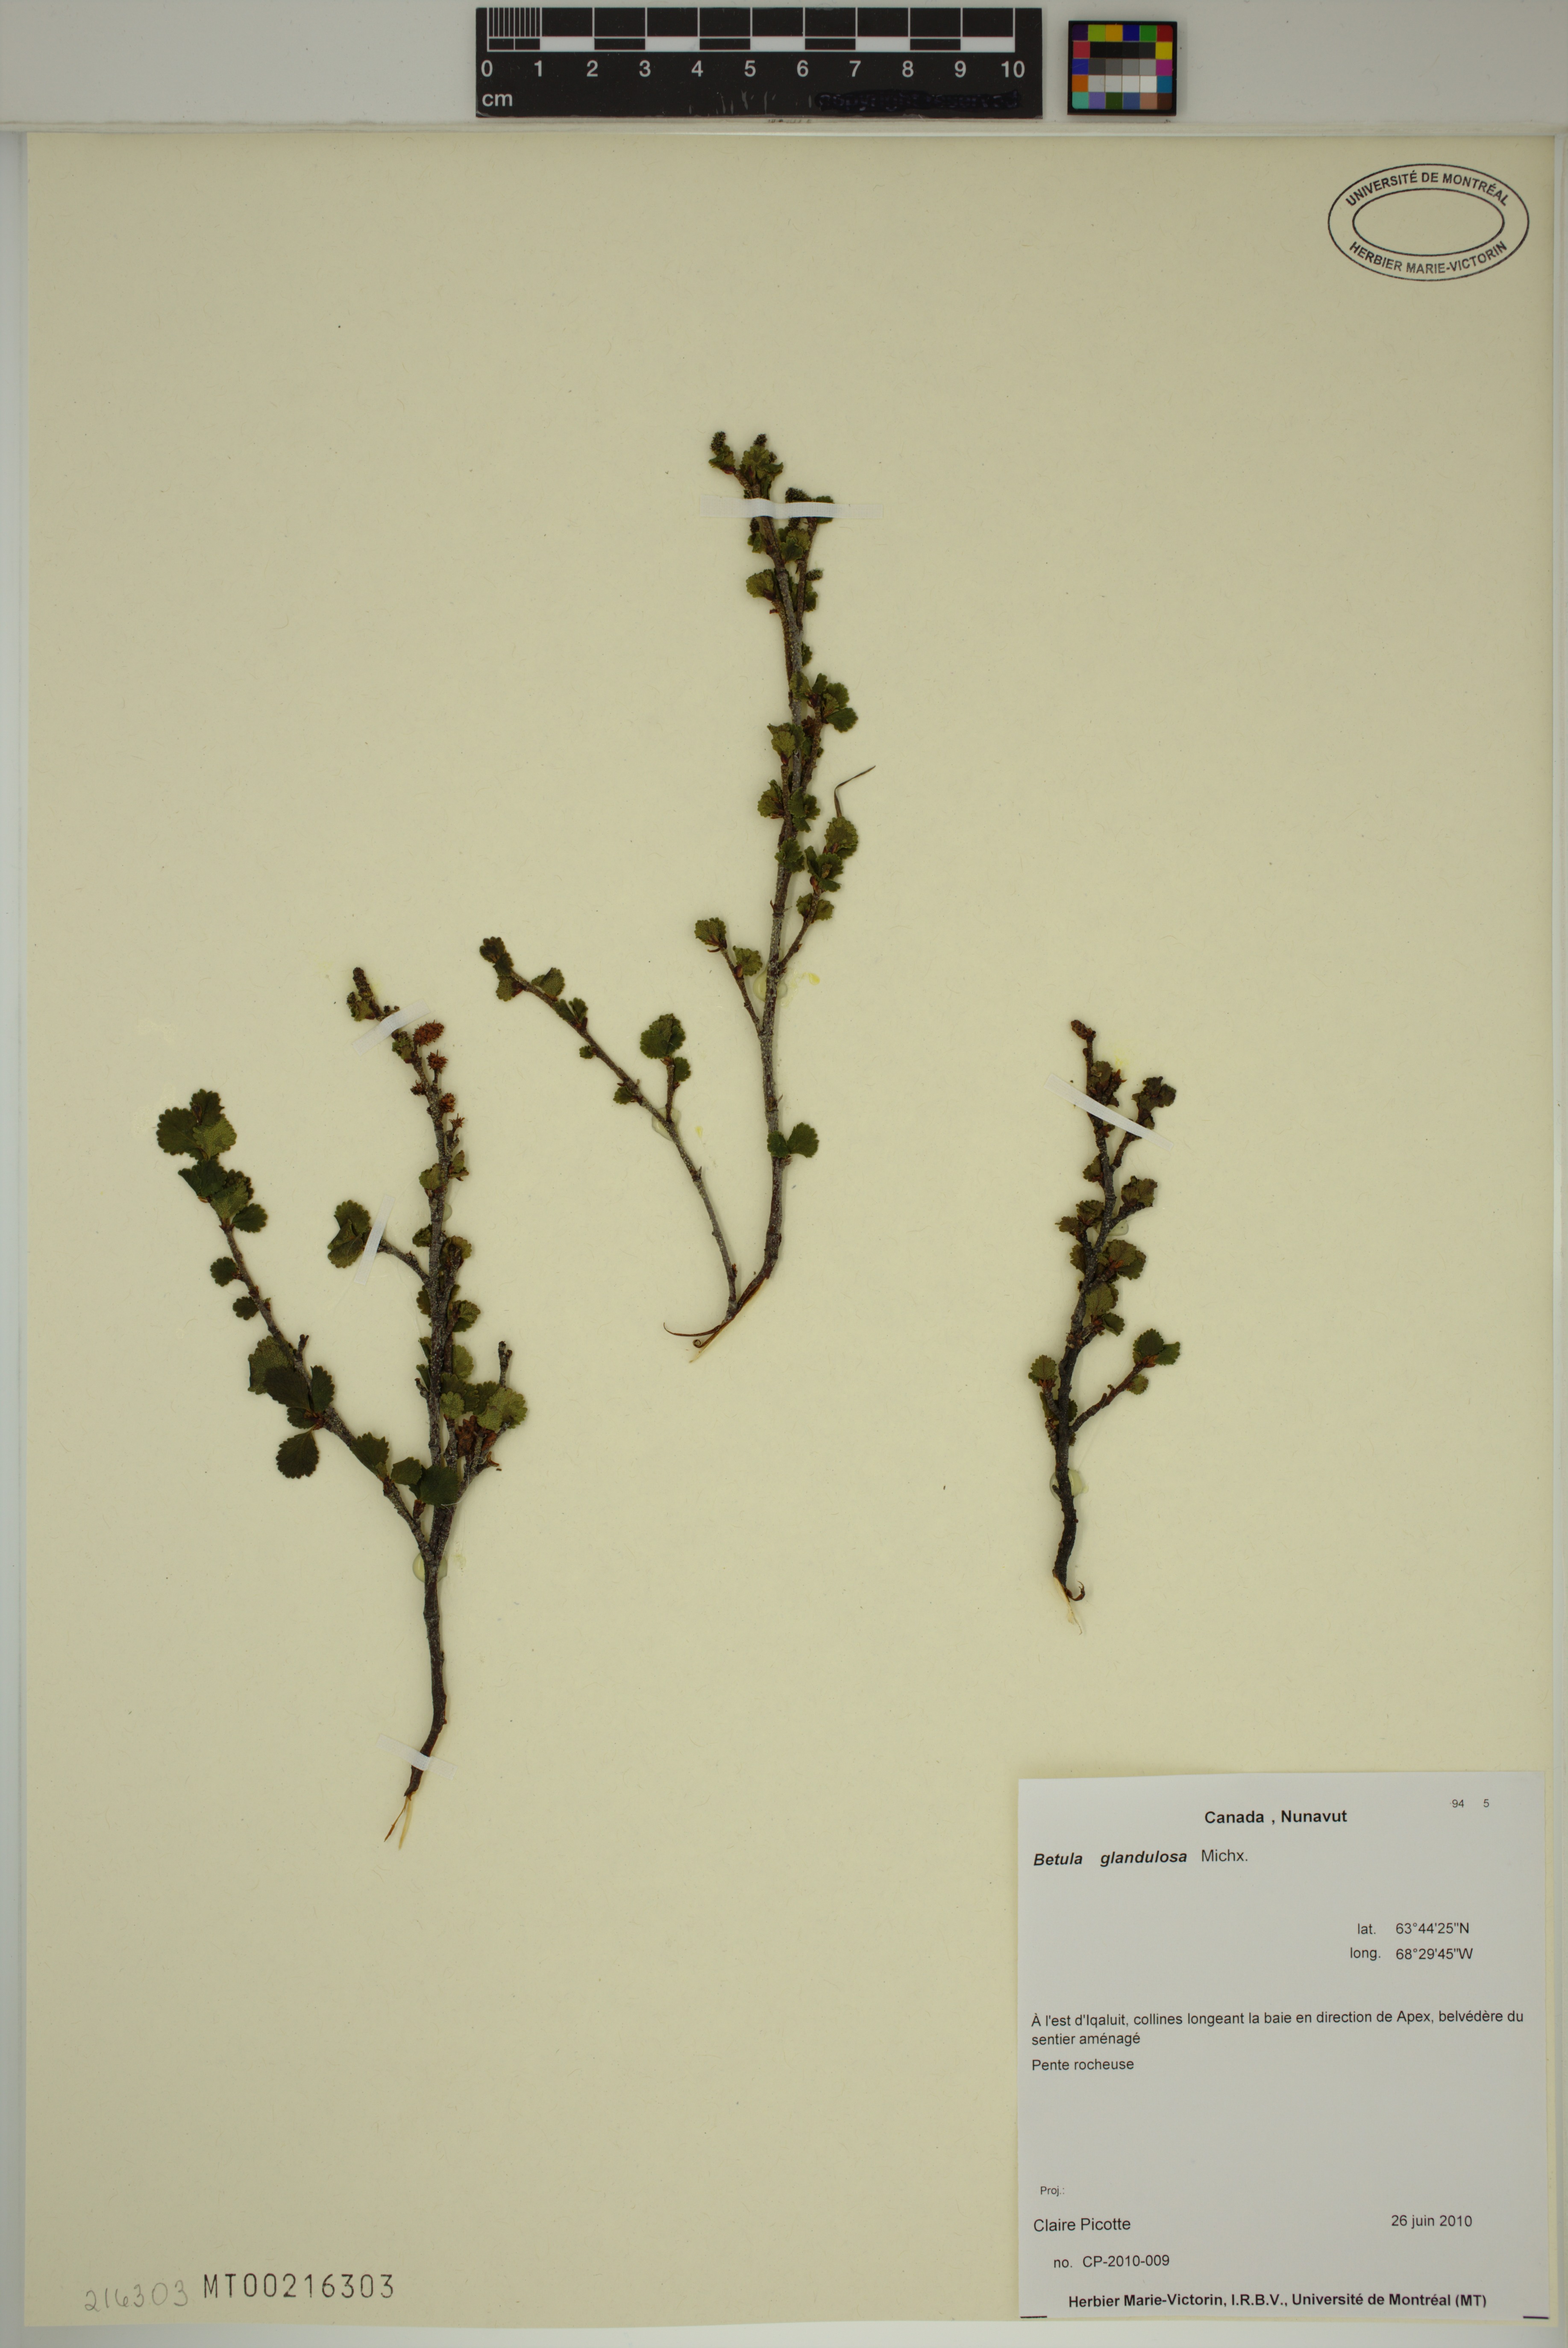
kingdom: Plantae
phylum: Tracheophyta
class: Magnoliopsida
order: Fagales
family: Betulaceae
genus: Betula
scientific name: Betula glandulosa
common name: Dwarf birch
